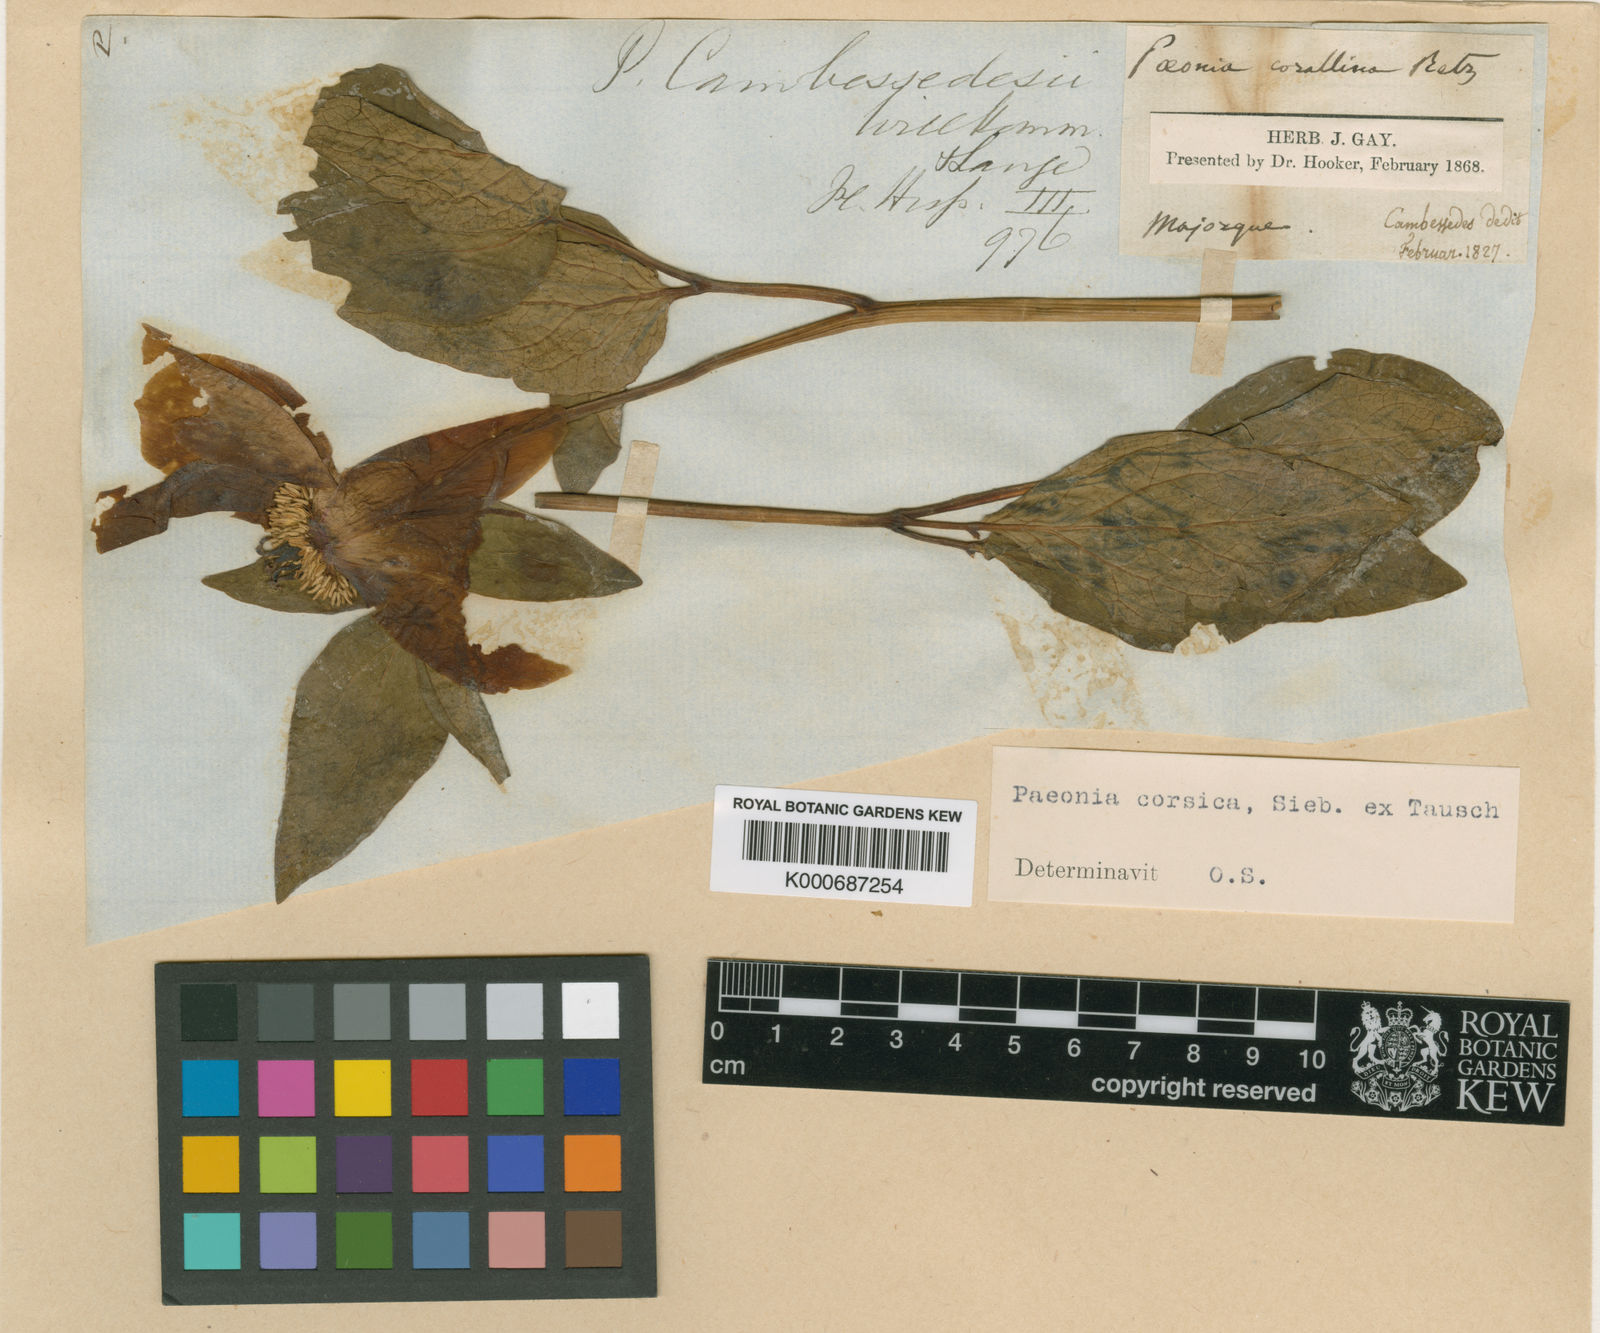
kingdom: Plantae
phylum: Tracheophyta
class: Magnoliopsida
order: Saxifragales
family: Paeoniaceae
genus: Paeonia
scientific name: Paeonia corsica
